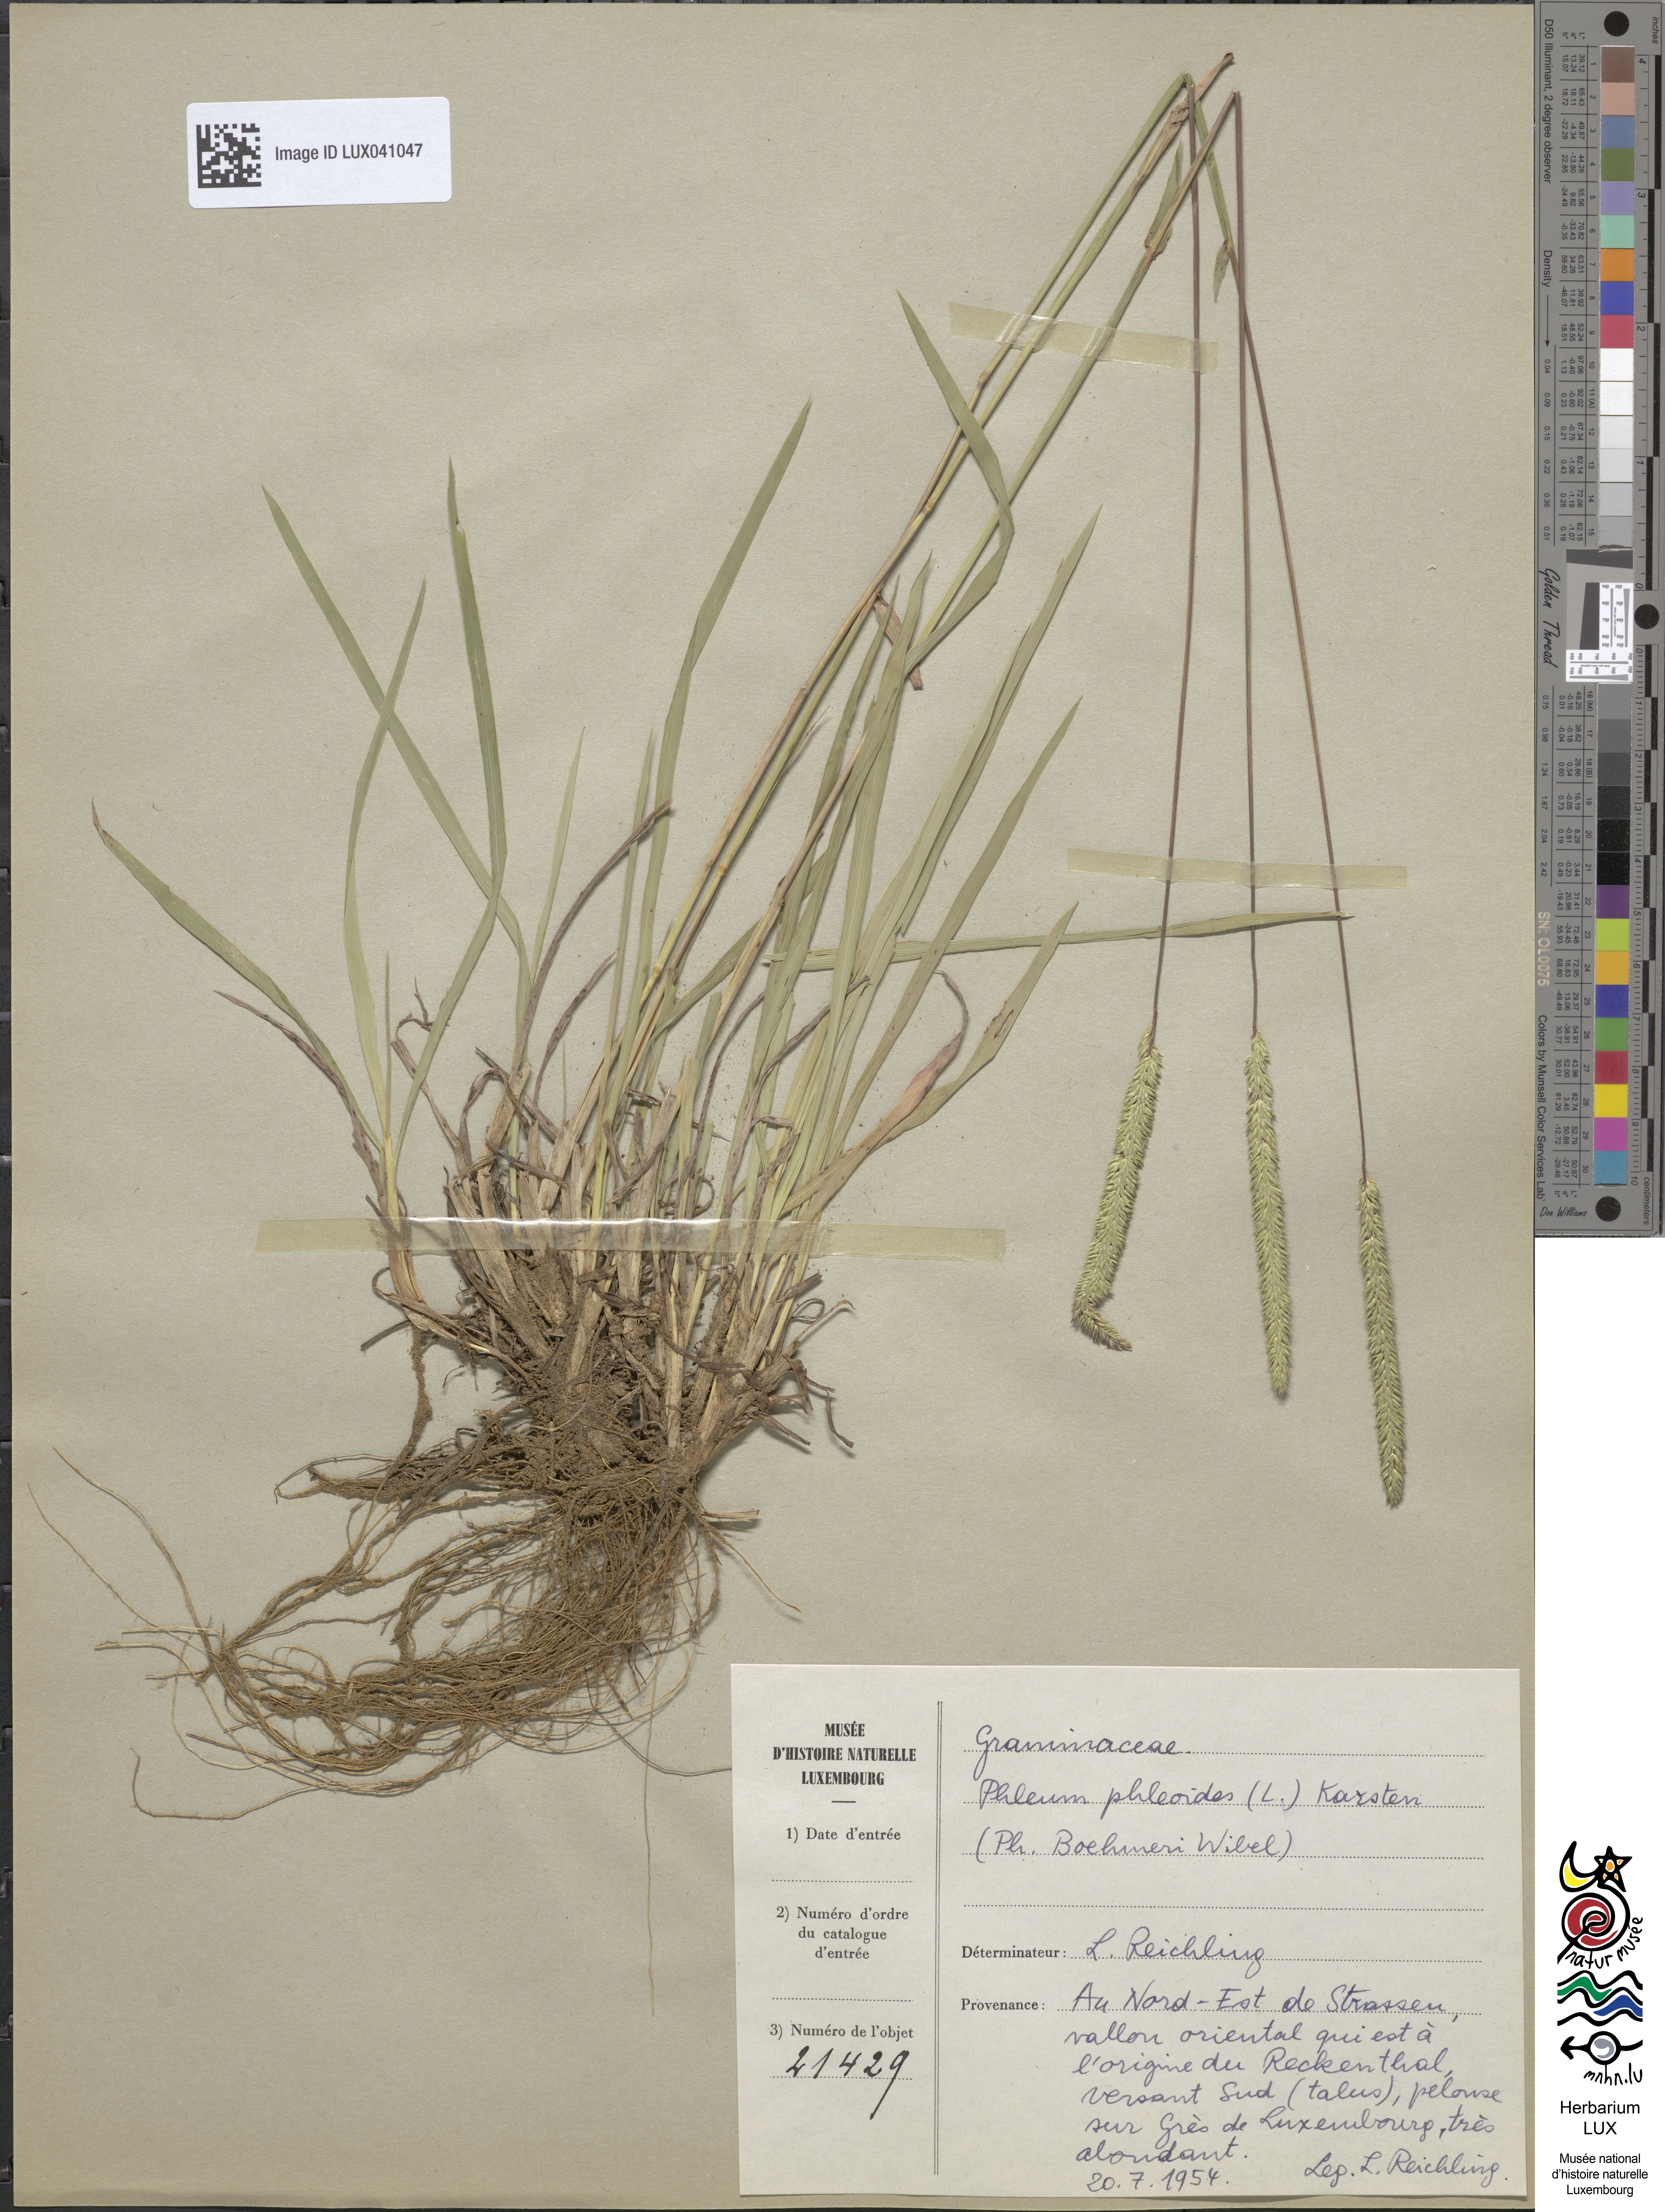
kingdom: Plantae
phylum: Tracheophyta
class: Liliopsida
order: Poales
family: Poaceae
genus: Phleum
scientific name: Phleum phleoides
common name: Purple-stem cat's-tail
